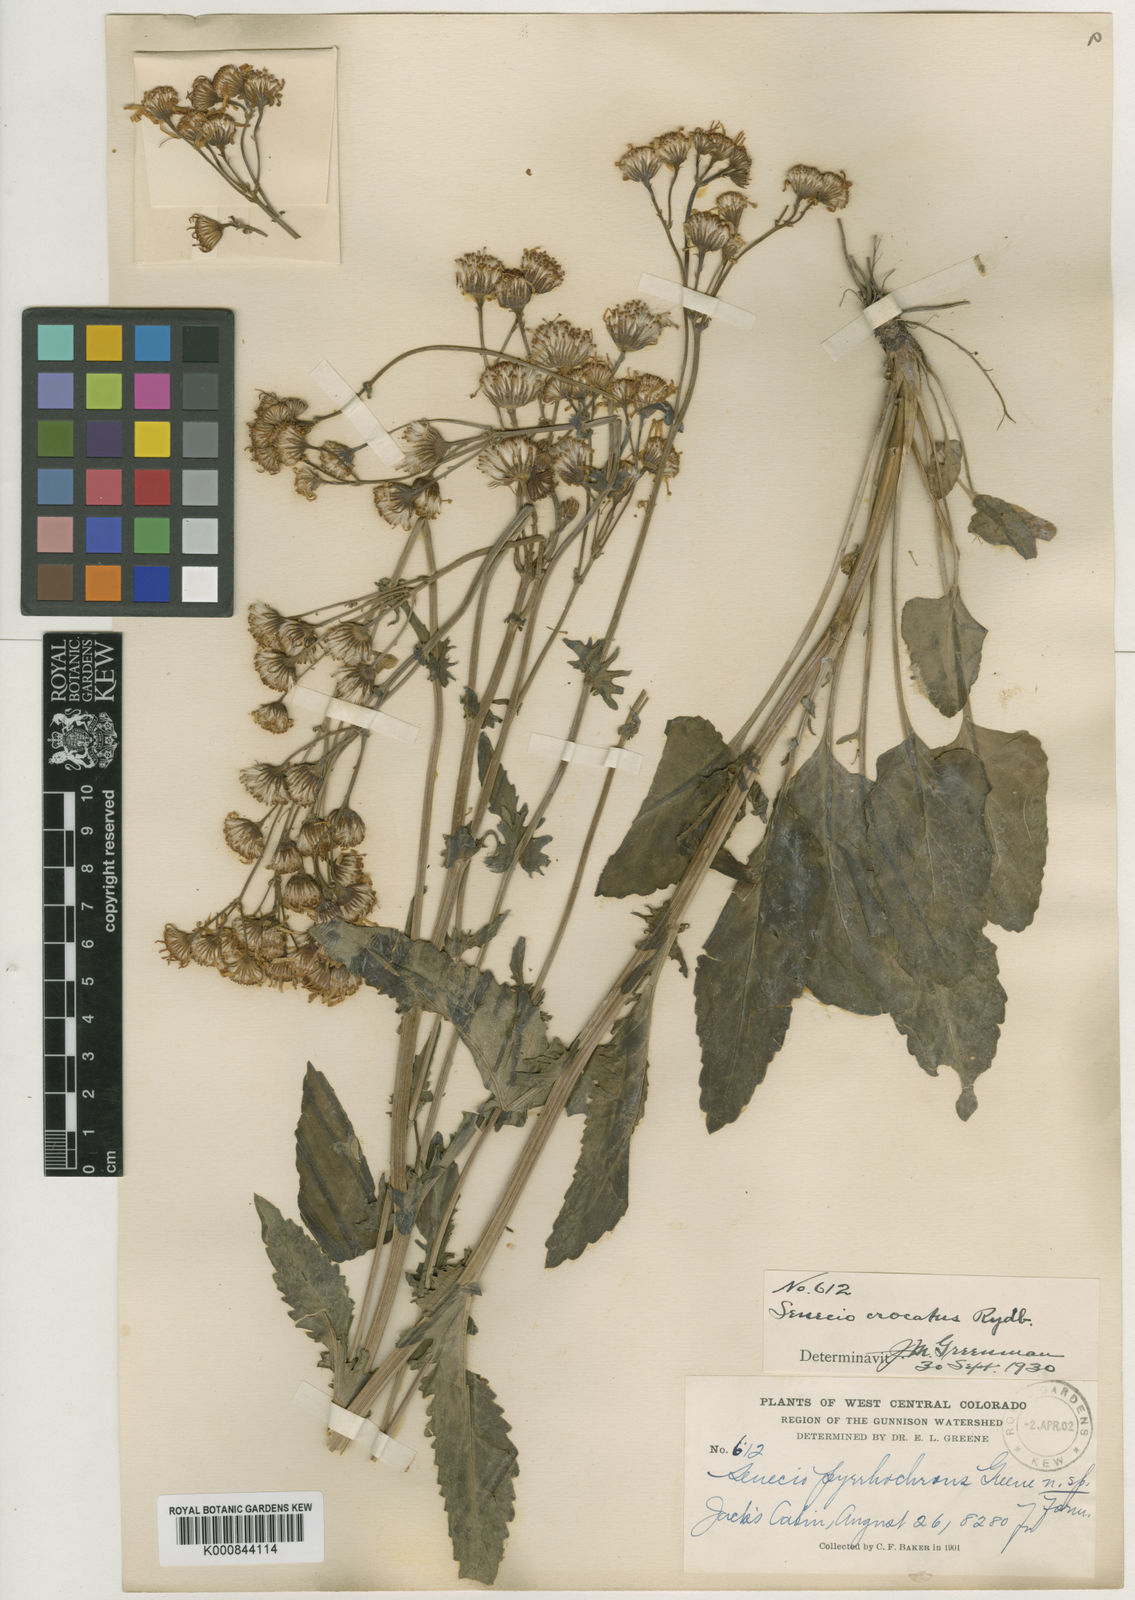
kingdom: Plantae
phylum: Tracheophyta
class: Magnoliopsida
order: Asterales
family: Asteraceae
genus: Packera
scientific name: Packera
